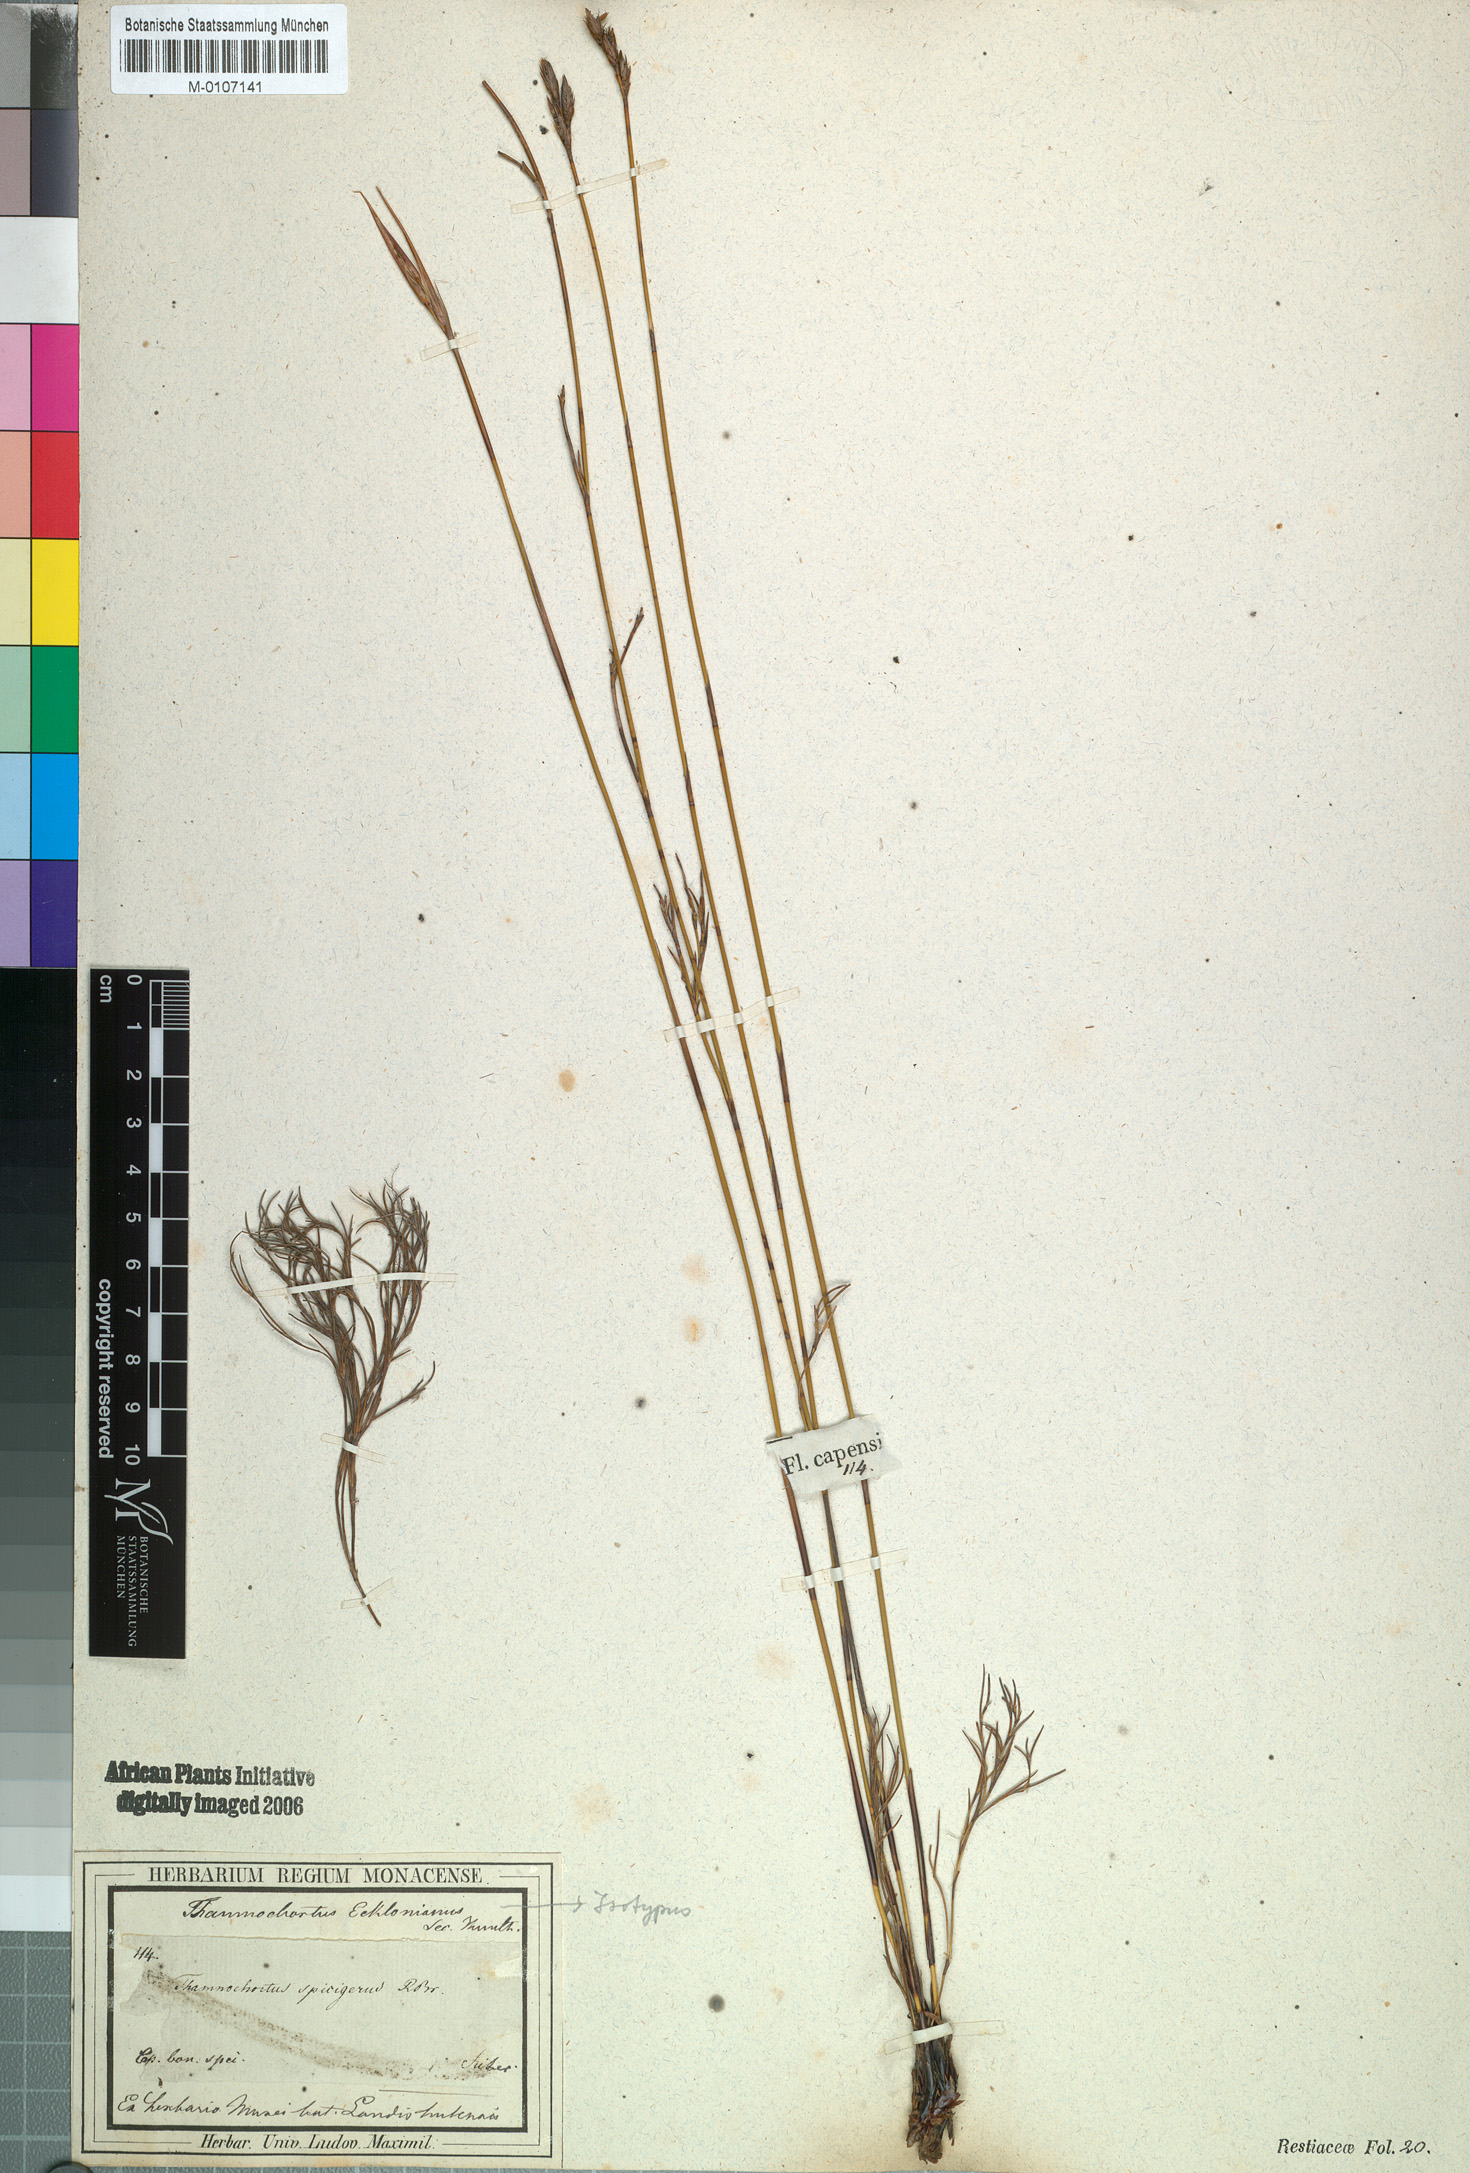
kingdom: Plantae
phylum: Tracheophyta
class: Liliopsida
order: Poales
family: Restionaceae
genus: Thamnochortus
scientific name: Thamnochortus lucens
